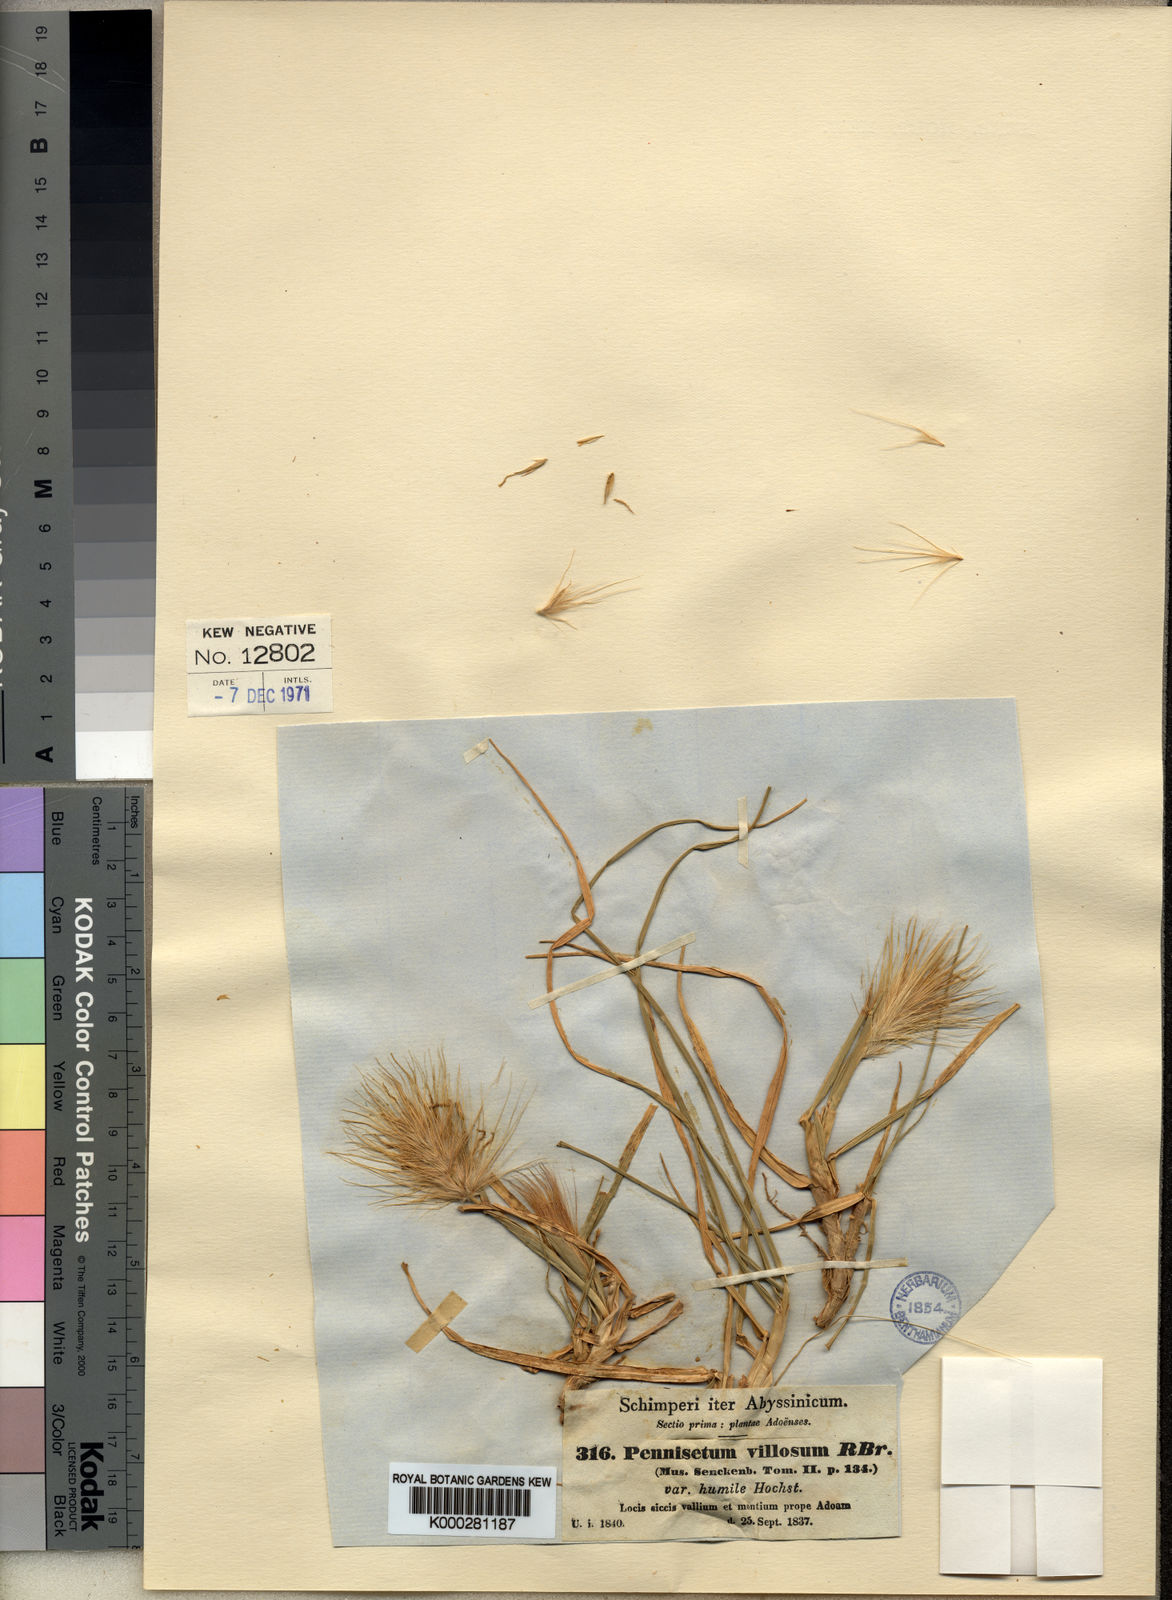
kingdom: Plantae
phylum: Tracheophyta
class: Liliopsida
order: Poales
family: Poaceae
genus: Cenchrus
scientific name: Cenchrus longisetus
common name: Feathertop
